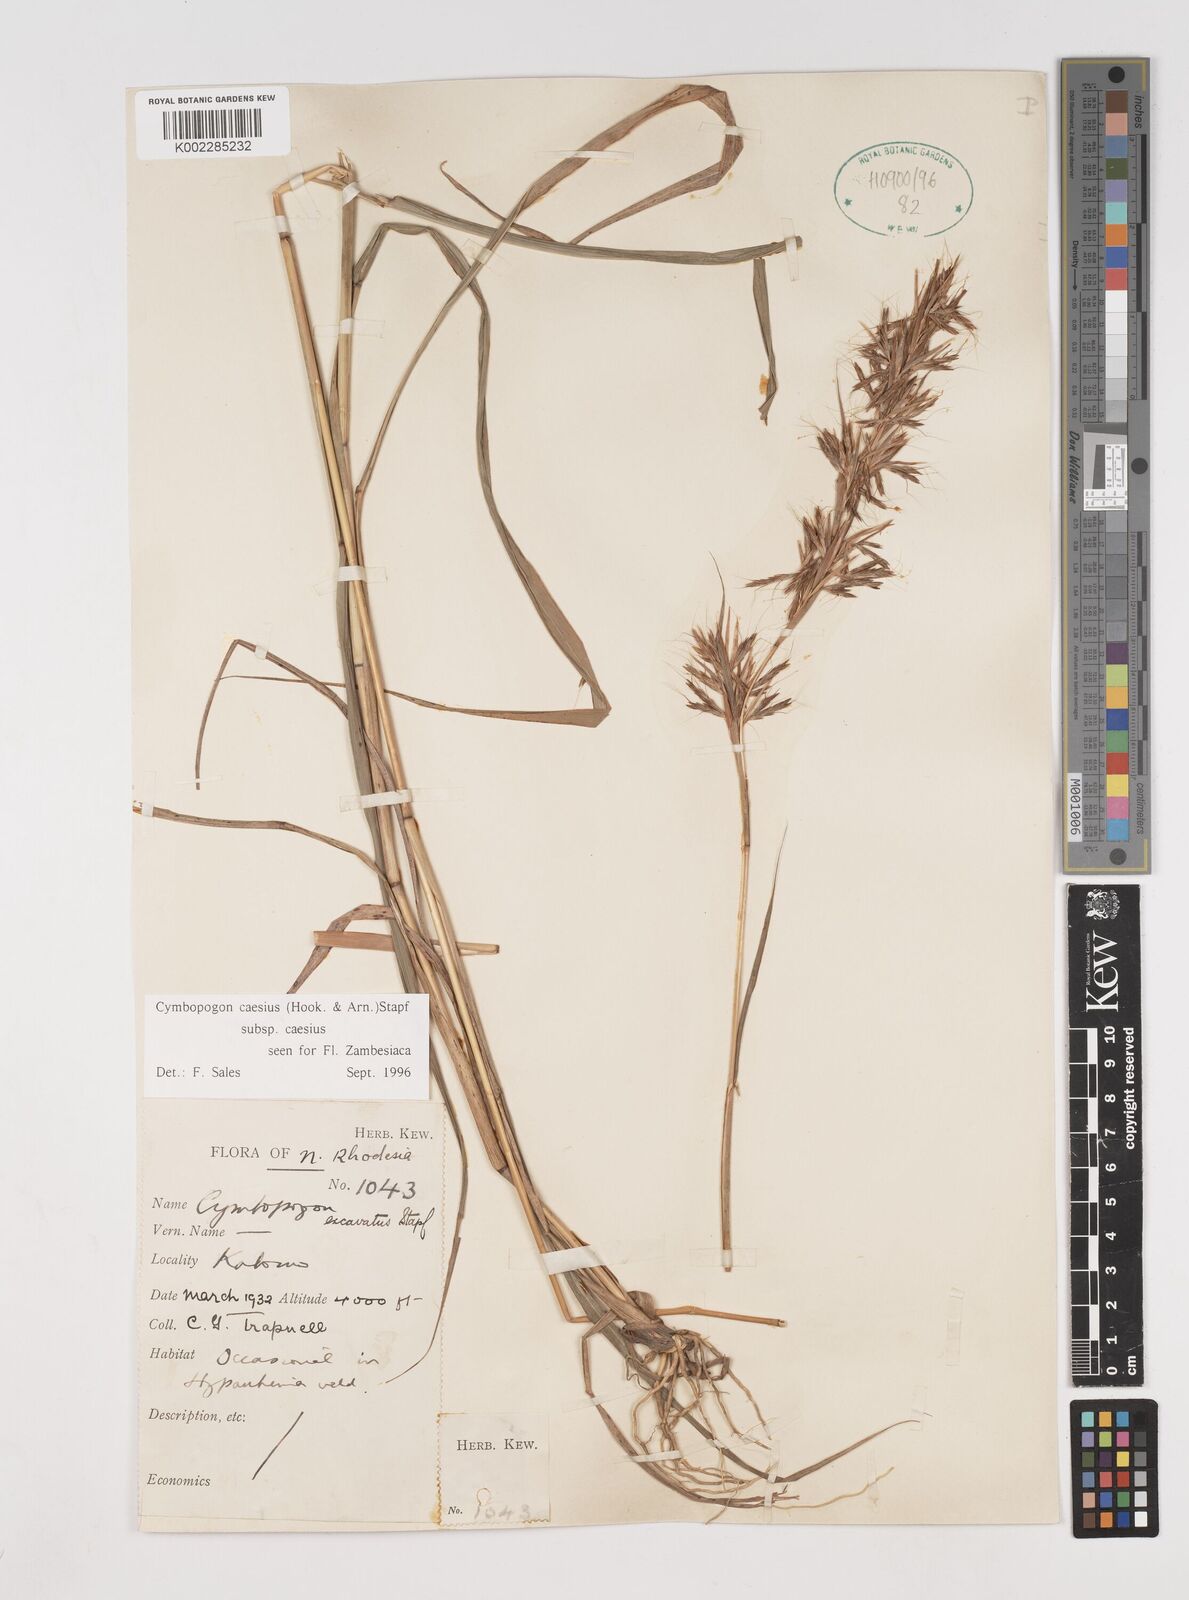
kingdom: Plantae
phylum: Tracheophyta
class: Liliopsida
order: Poales
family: Poaceae
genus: Cymbopogon
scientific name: Cymbopogon caesius
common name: Kachi grass
